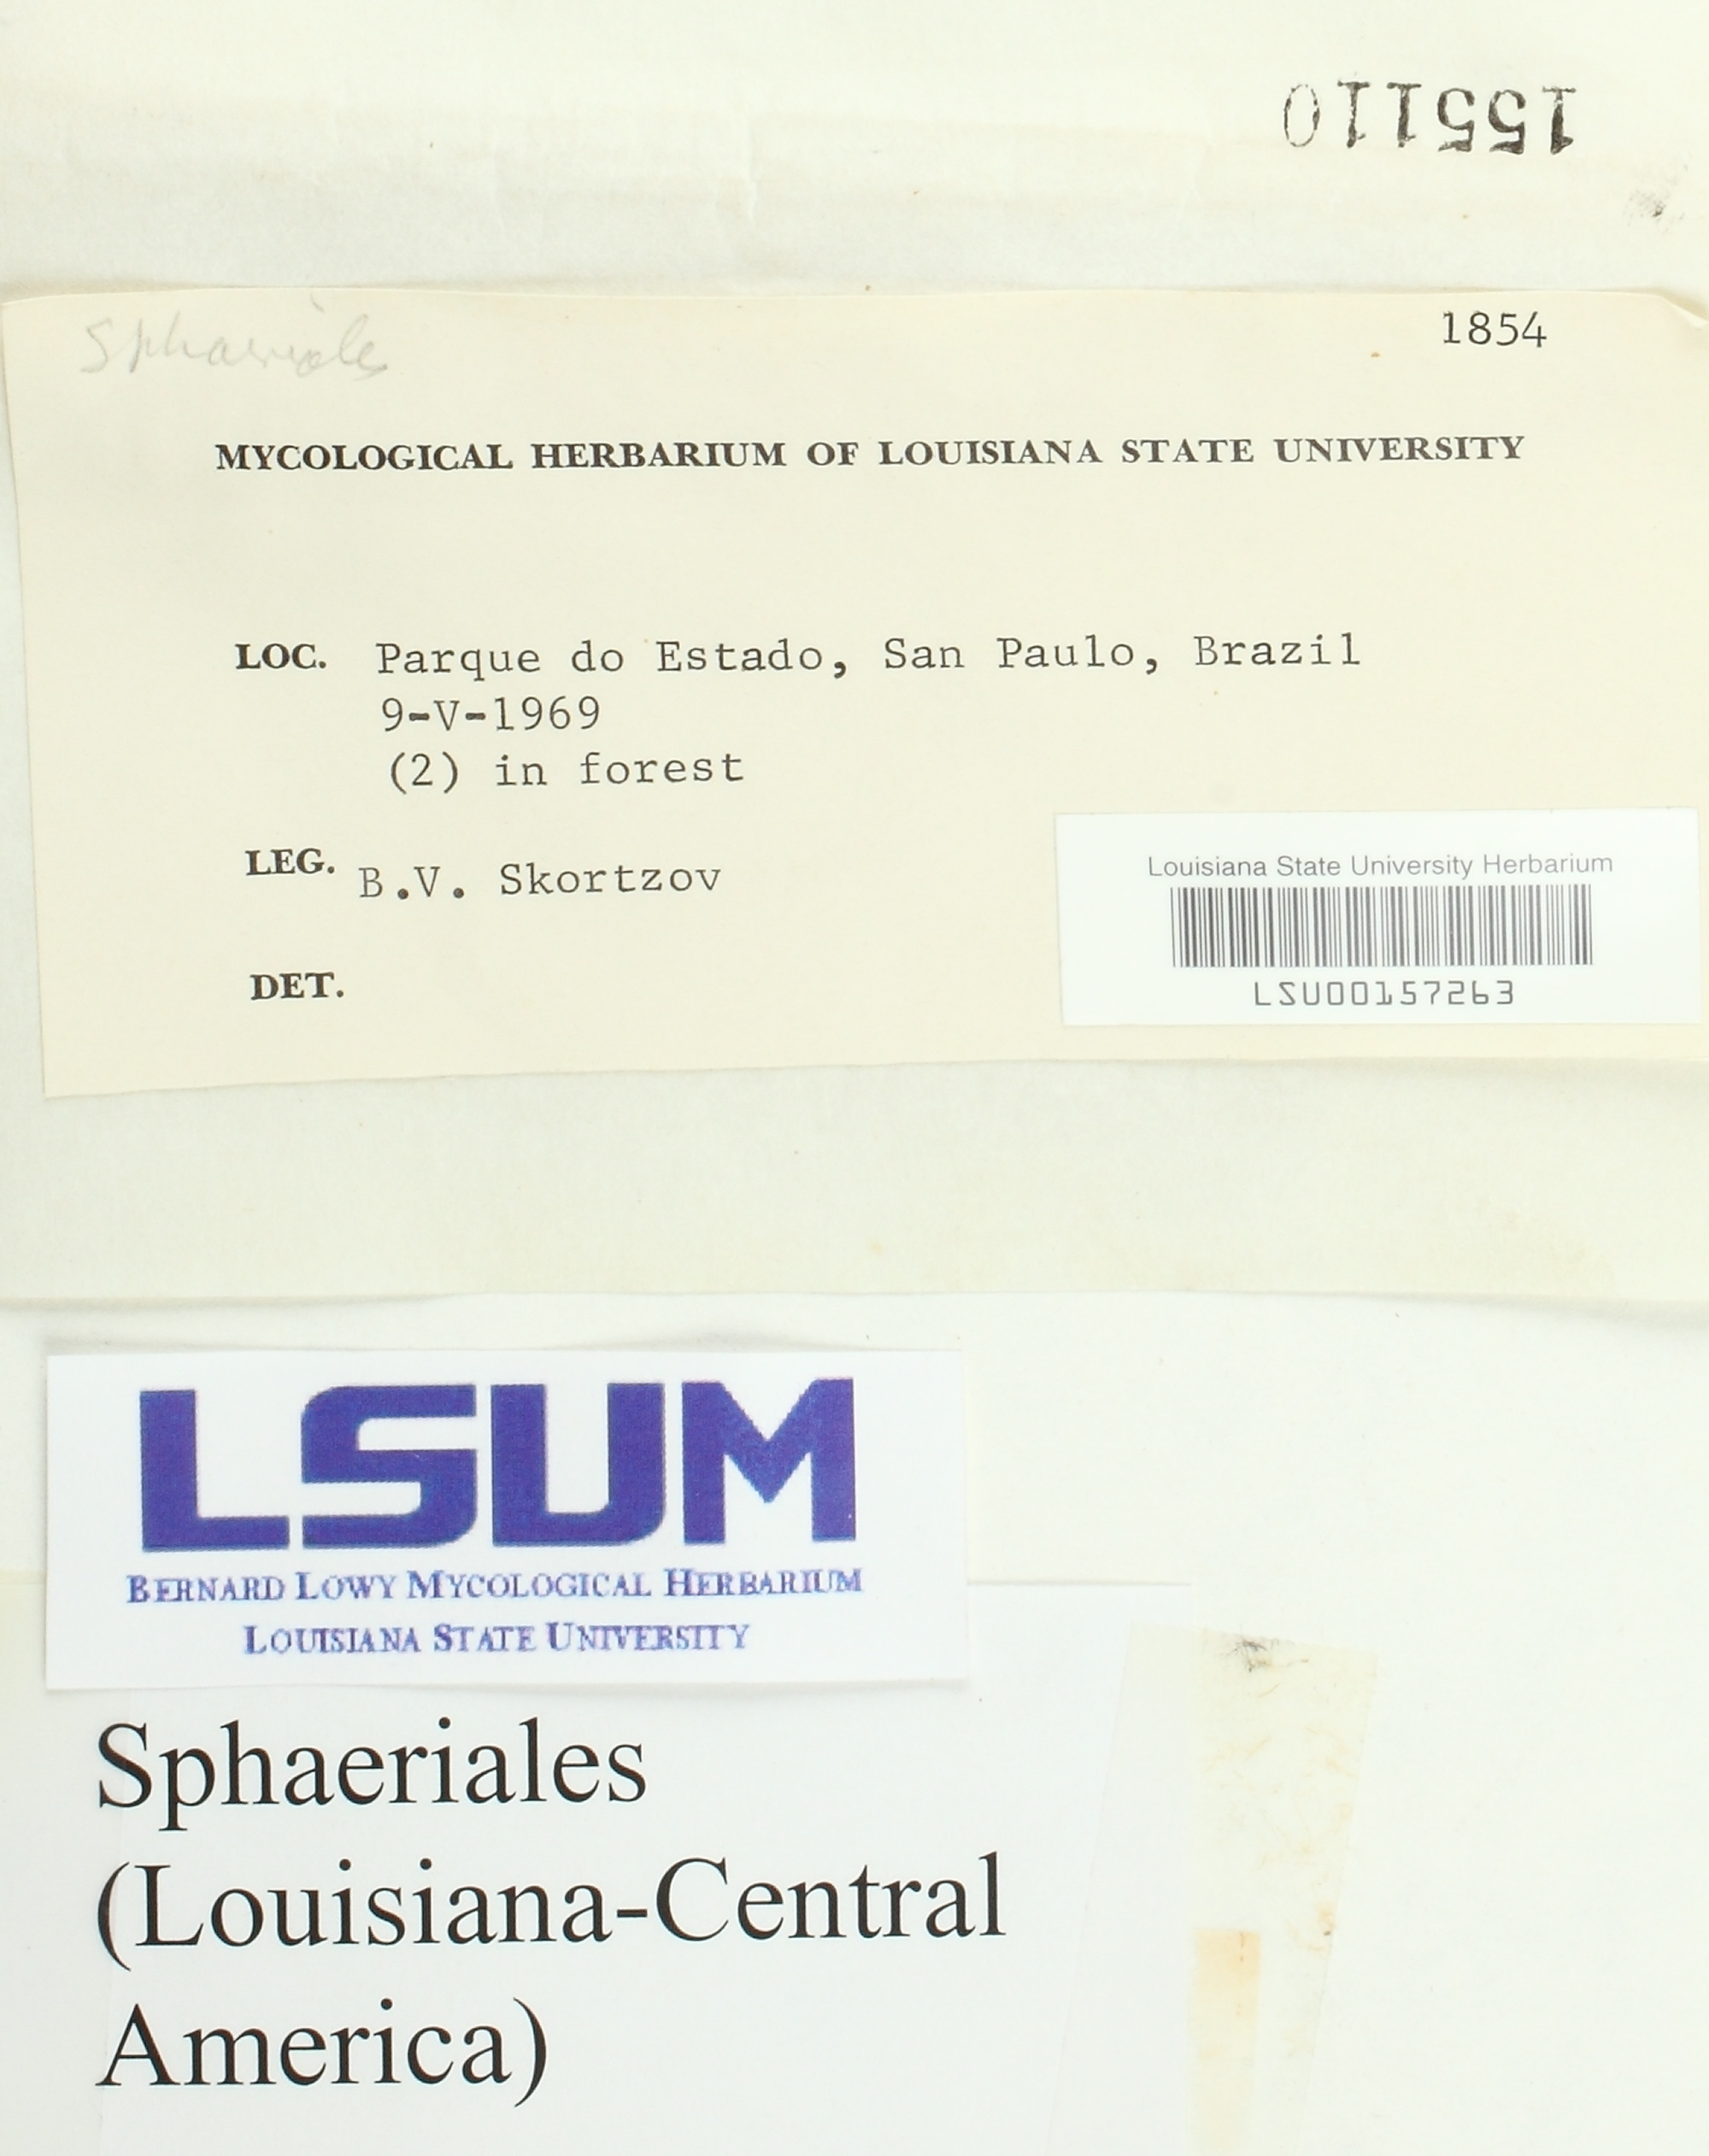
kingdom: Fungi
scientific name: Fungi
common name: Fungi
